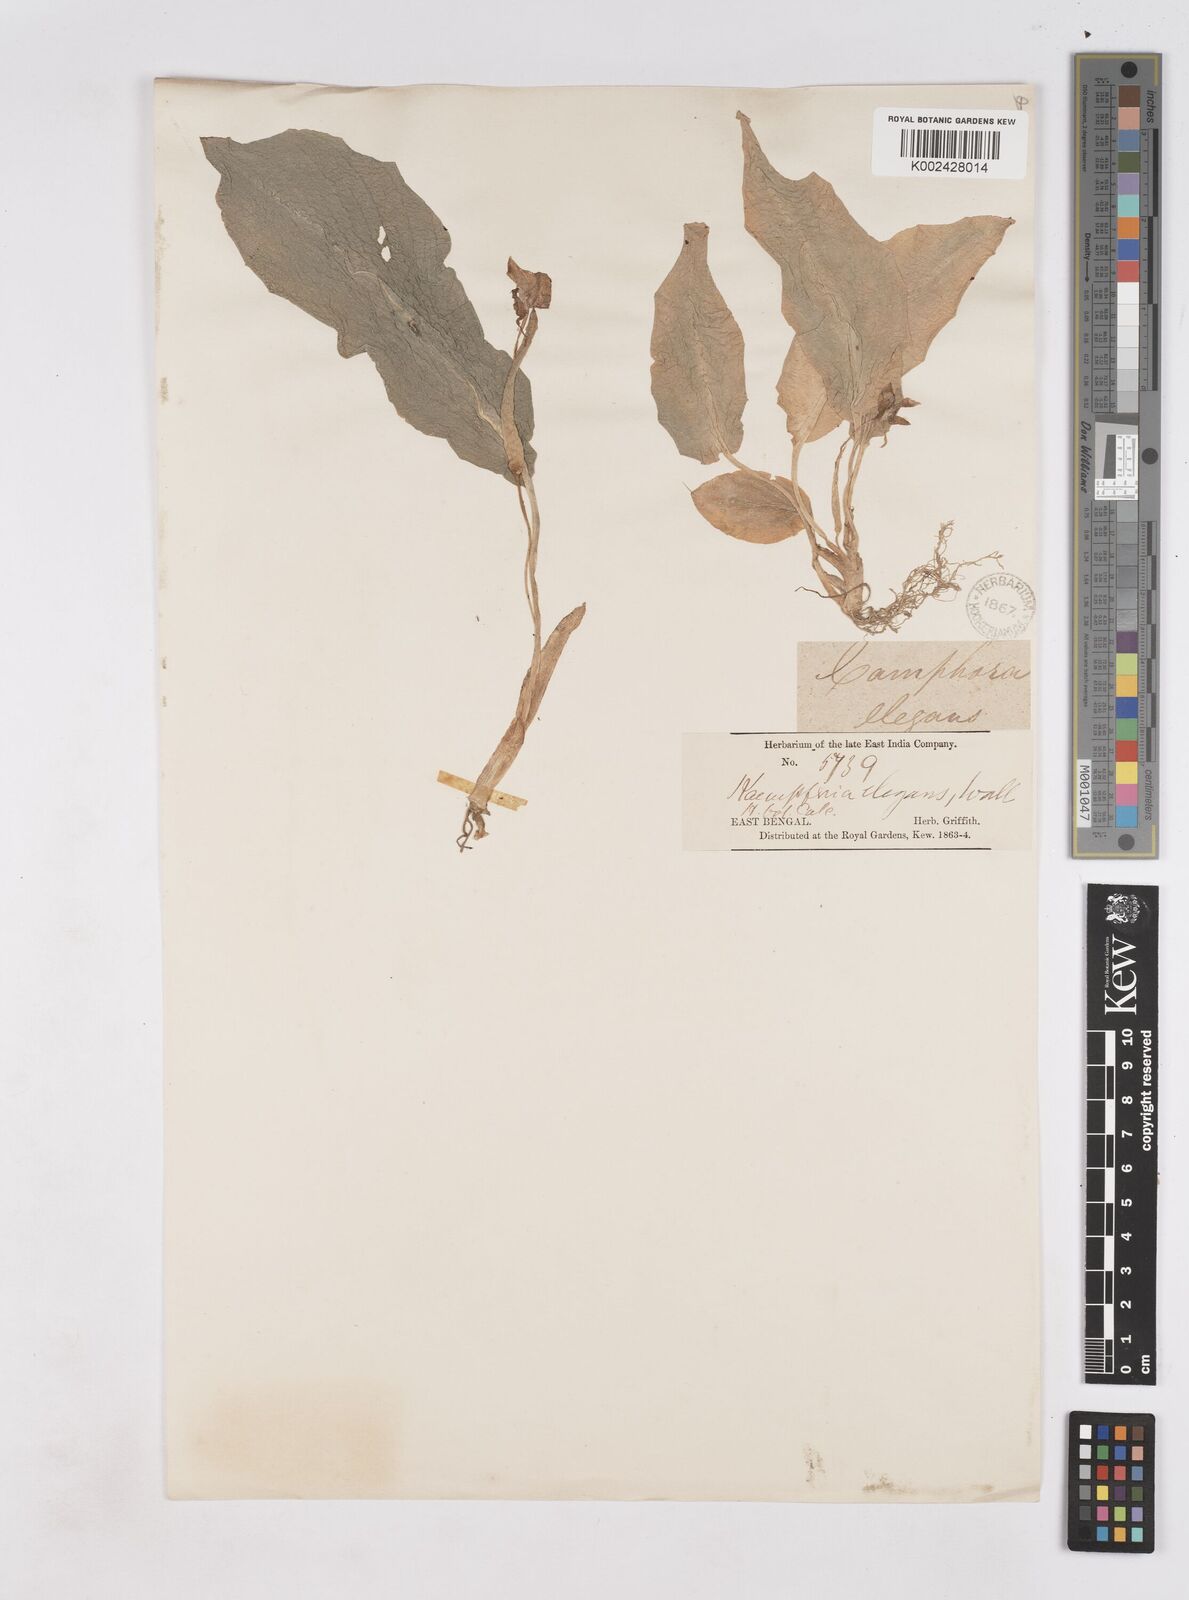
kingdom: Plantae
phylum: Tracheophyta
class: Liliopsida
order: Zingiberales
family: Zingiberaceae
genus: Kaempferia
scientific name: Kaempferia elegans
